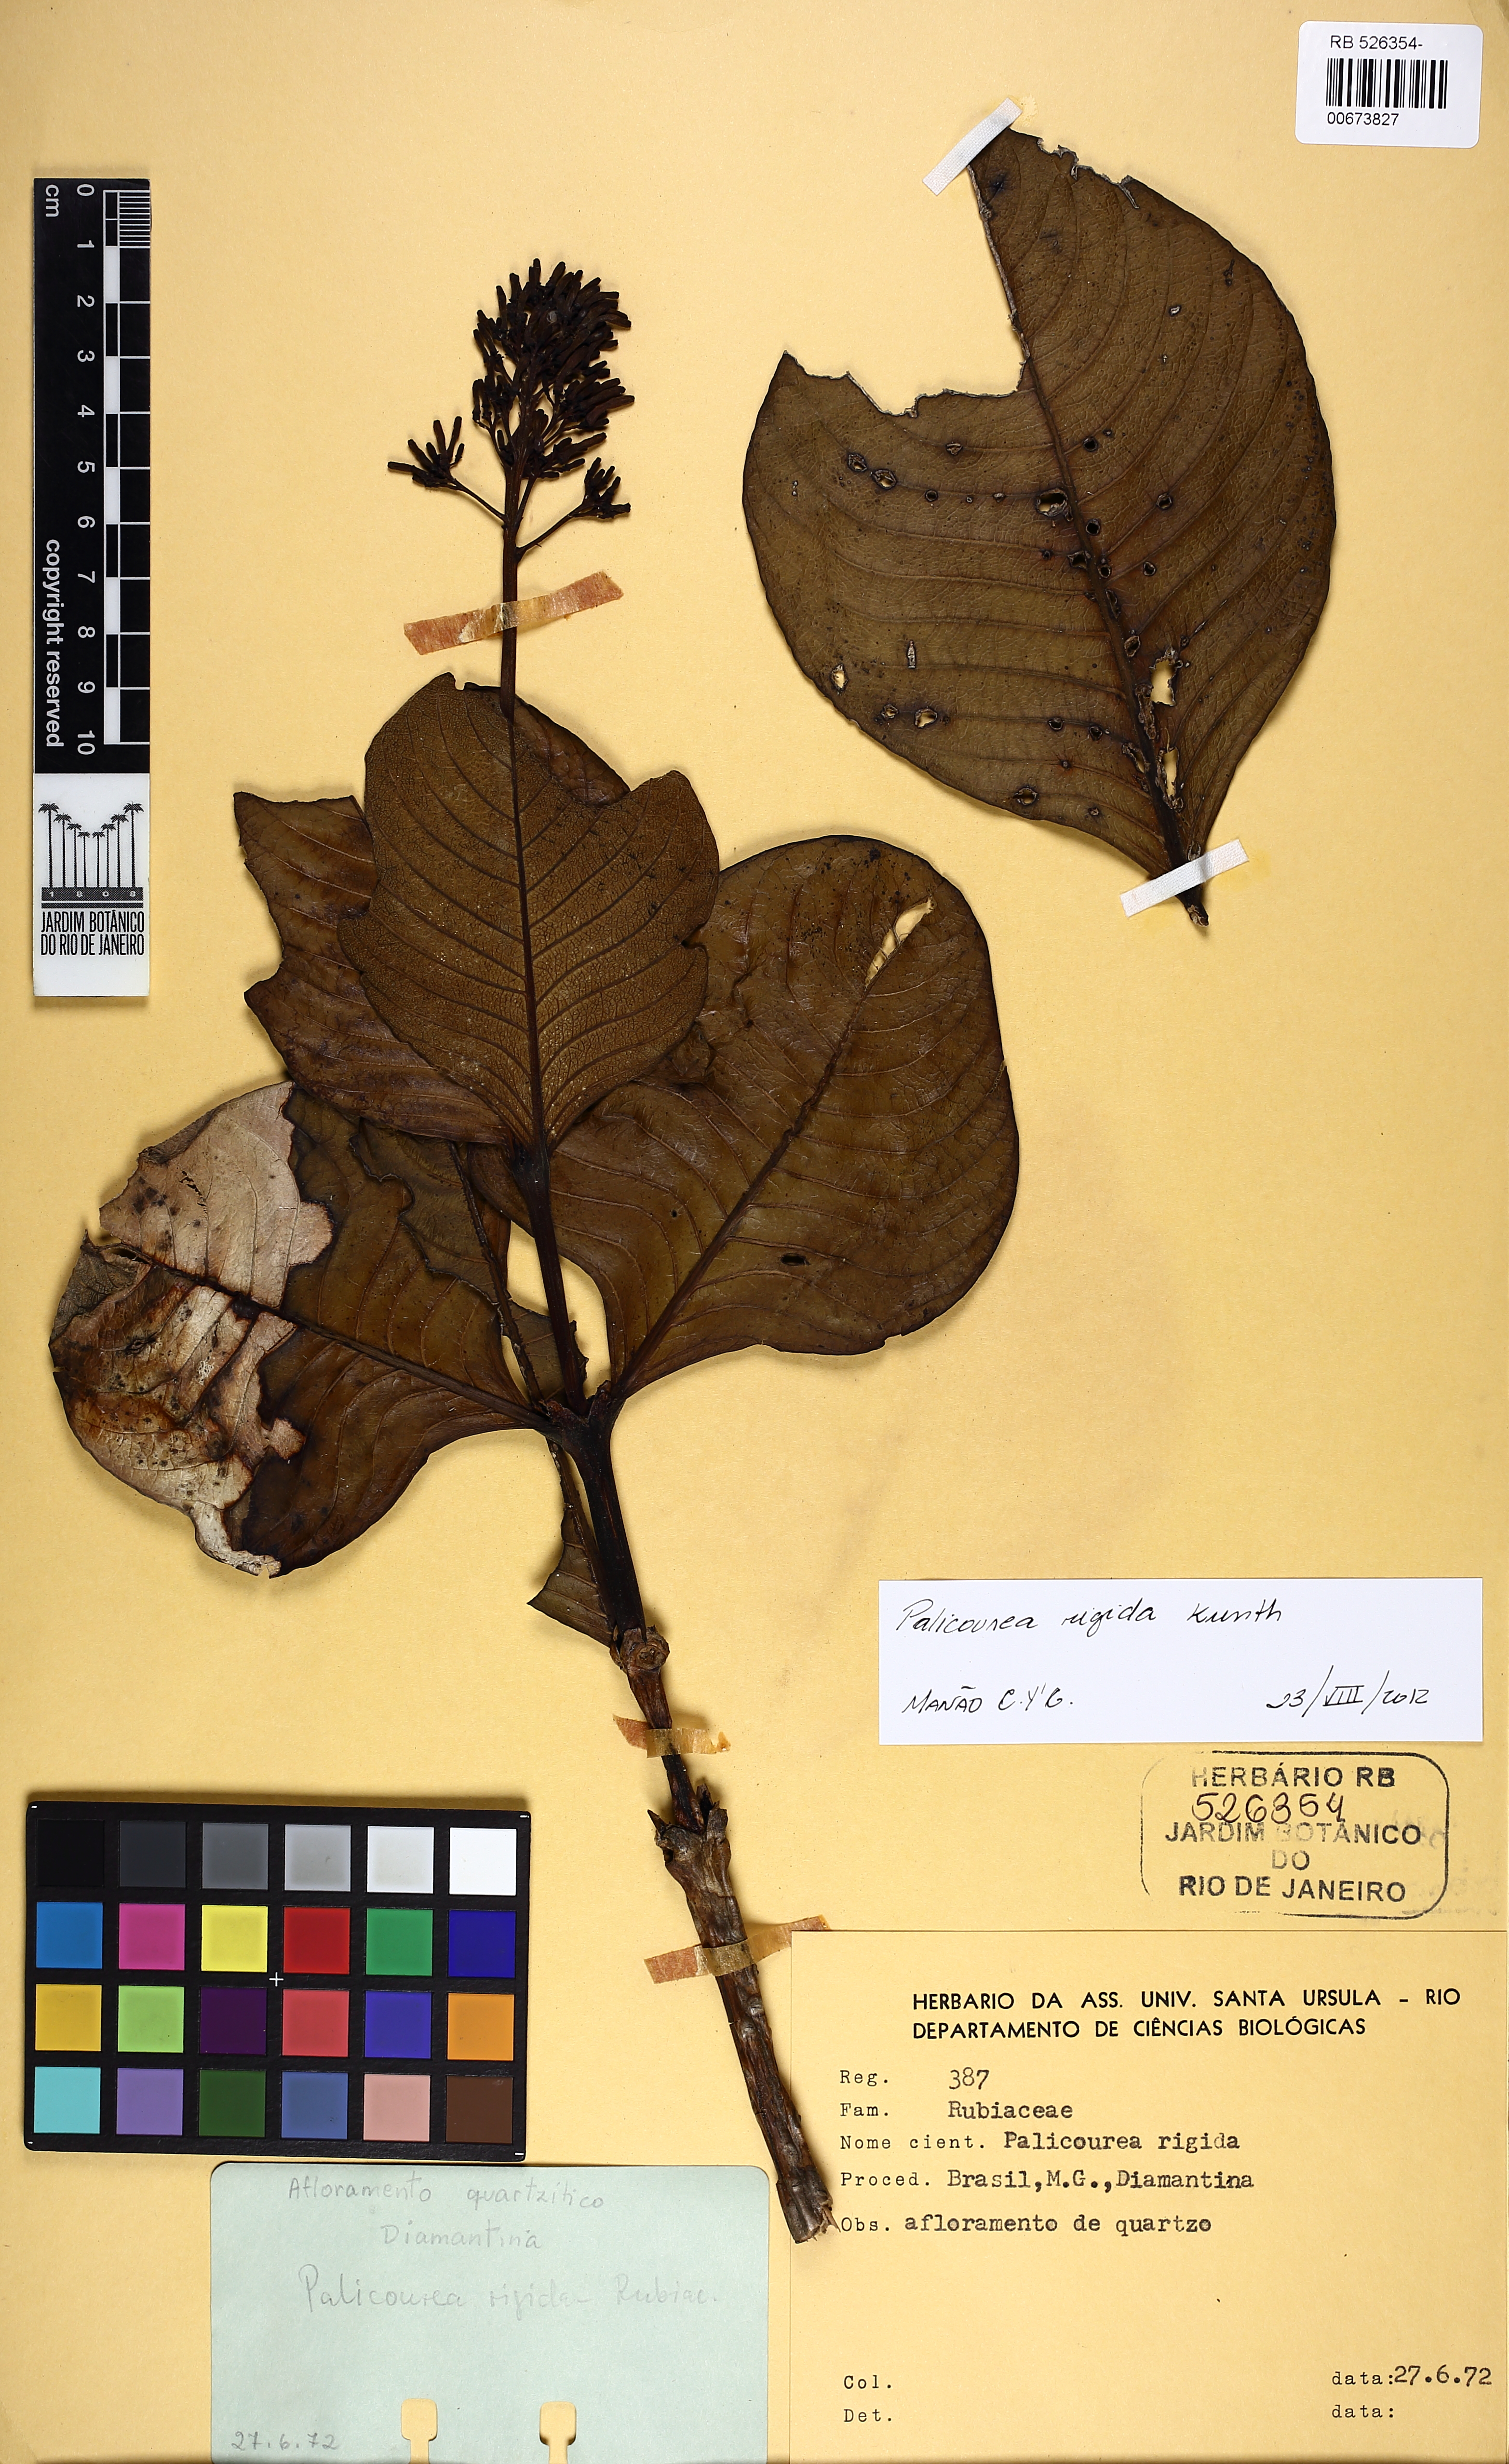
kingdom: Plantae
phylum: Tracheophyta
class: Magnoliopsida
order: Gentianales
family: Rubiaceae
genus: Palicourea
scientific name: Palicourea rigida
